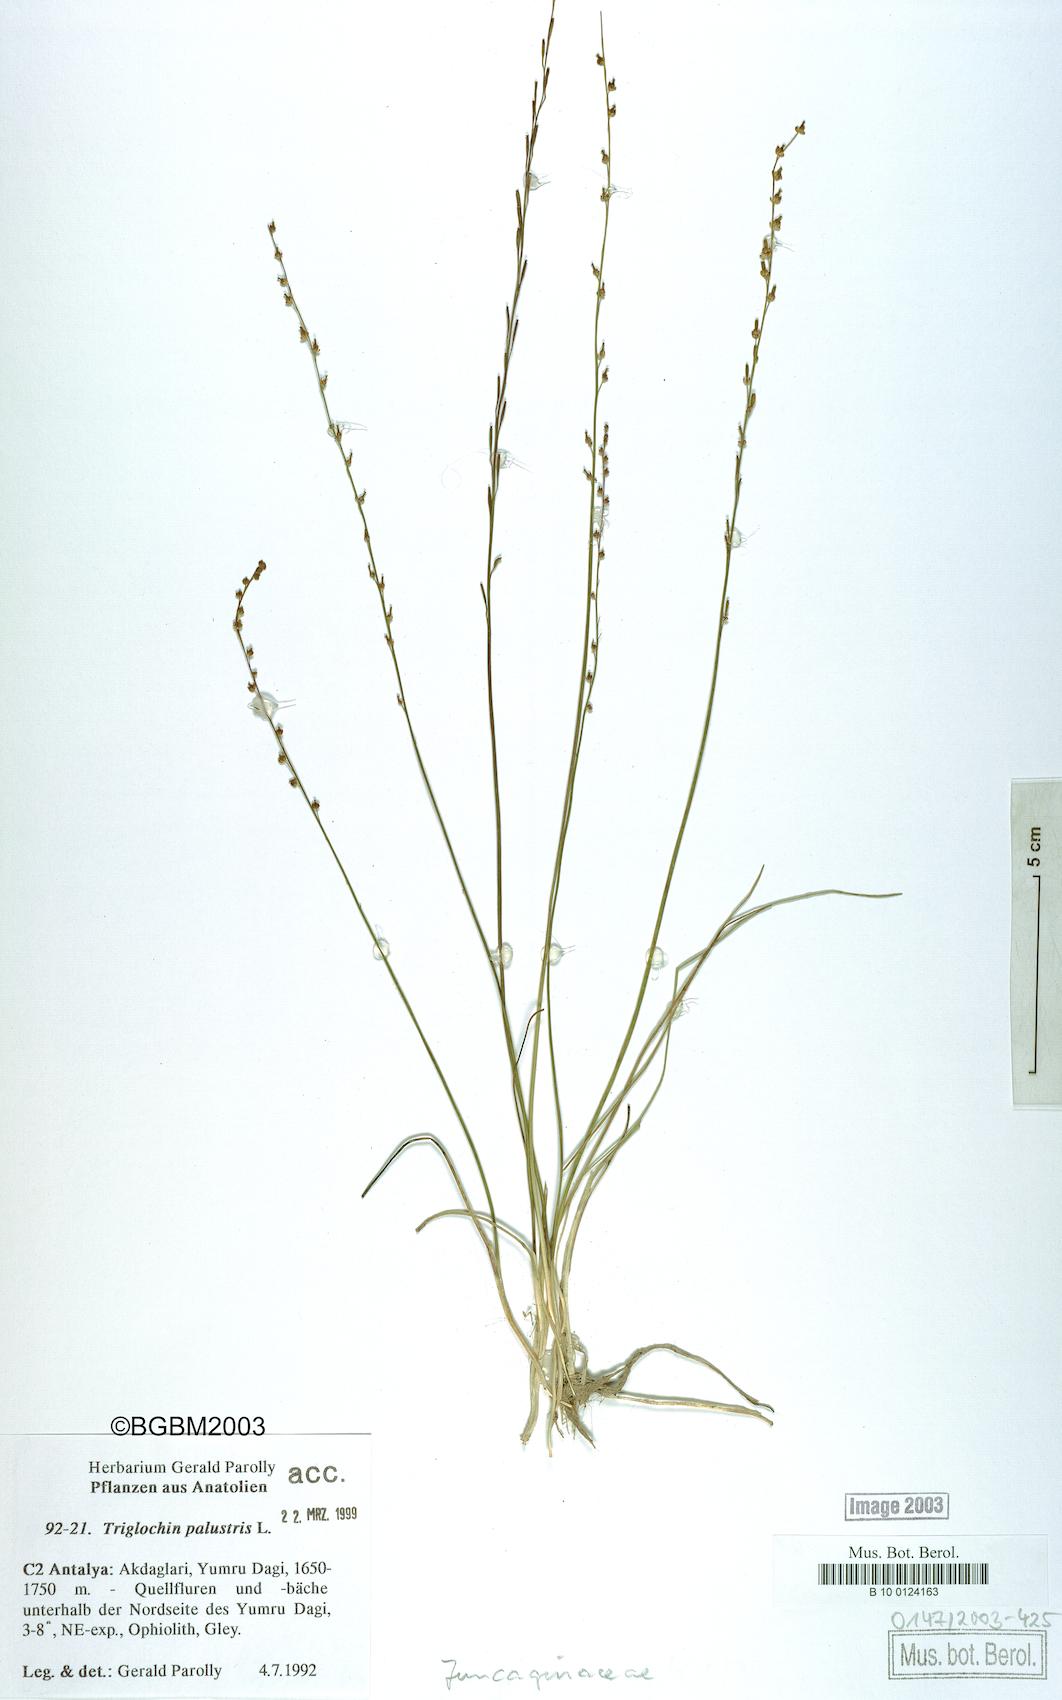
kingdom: Plantae
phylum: Tracheophyta
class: Liliopsida
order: Alismatales
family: Juncaginaceae
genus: Triglochin
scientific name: Triglochin palustris
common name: Marsh arrowgrass
